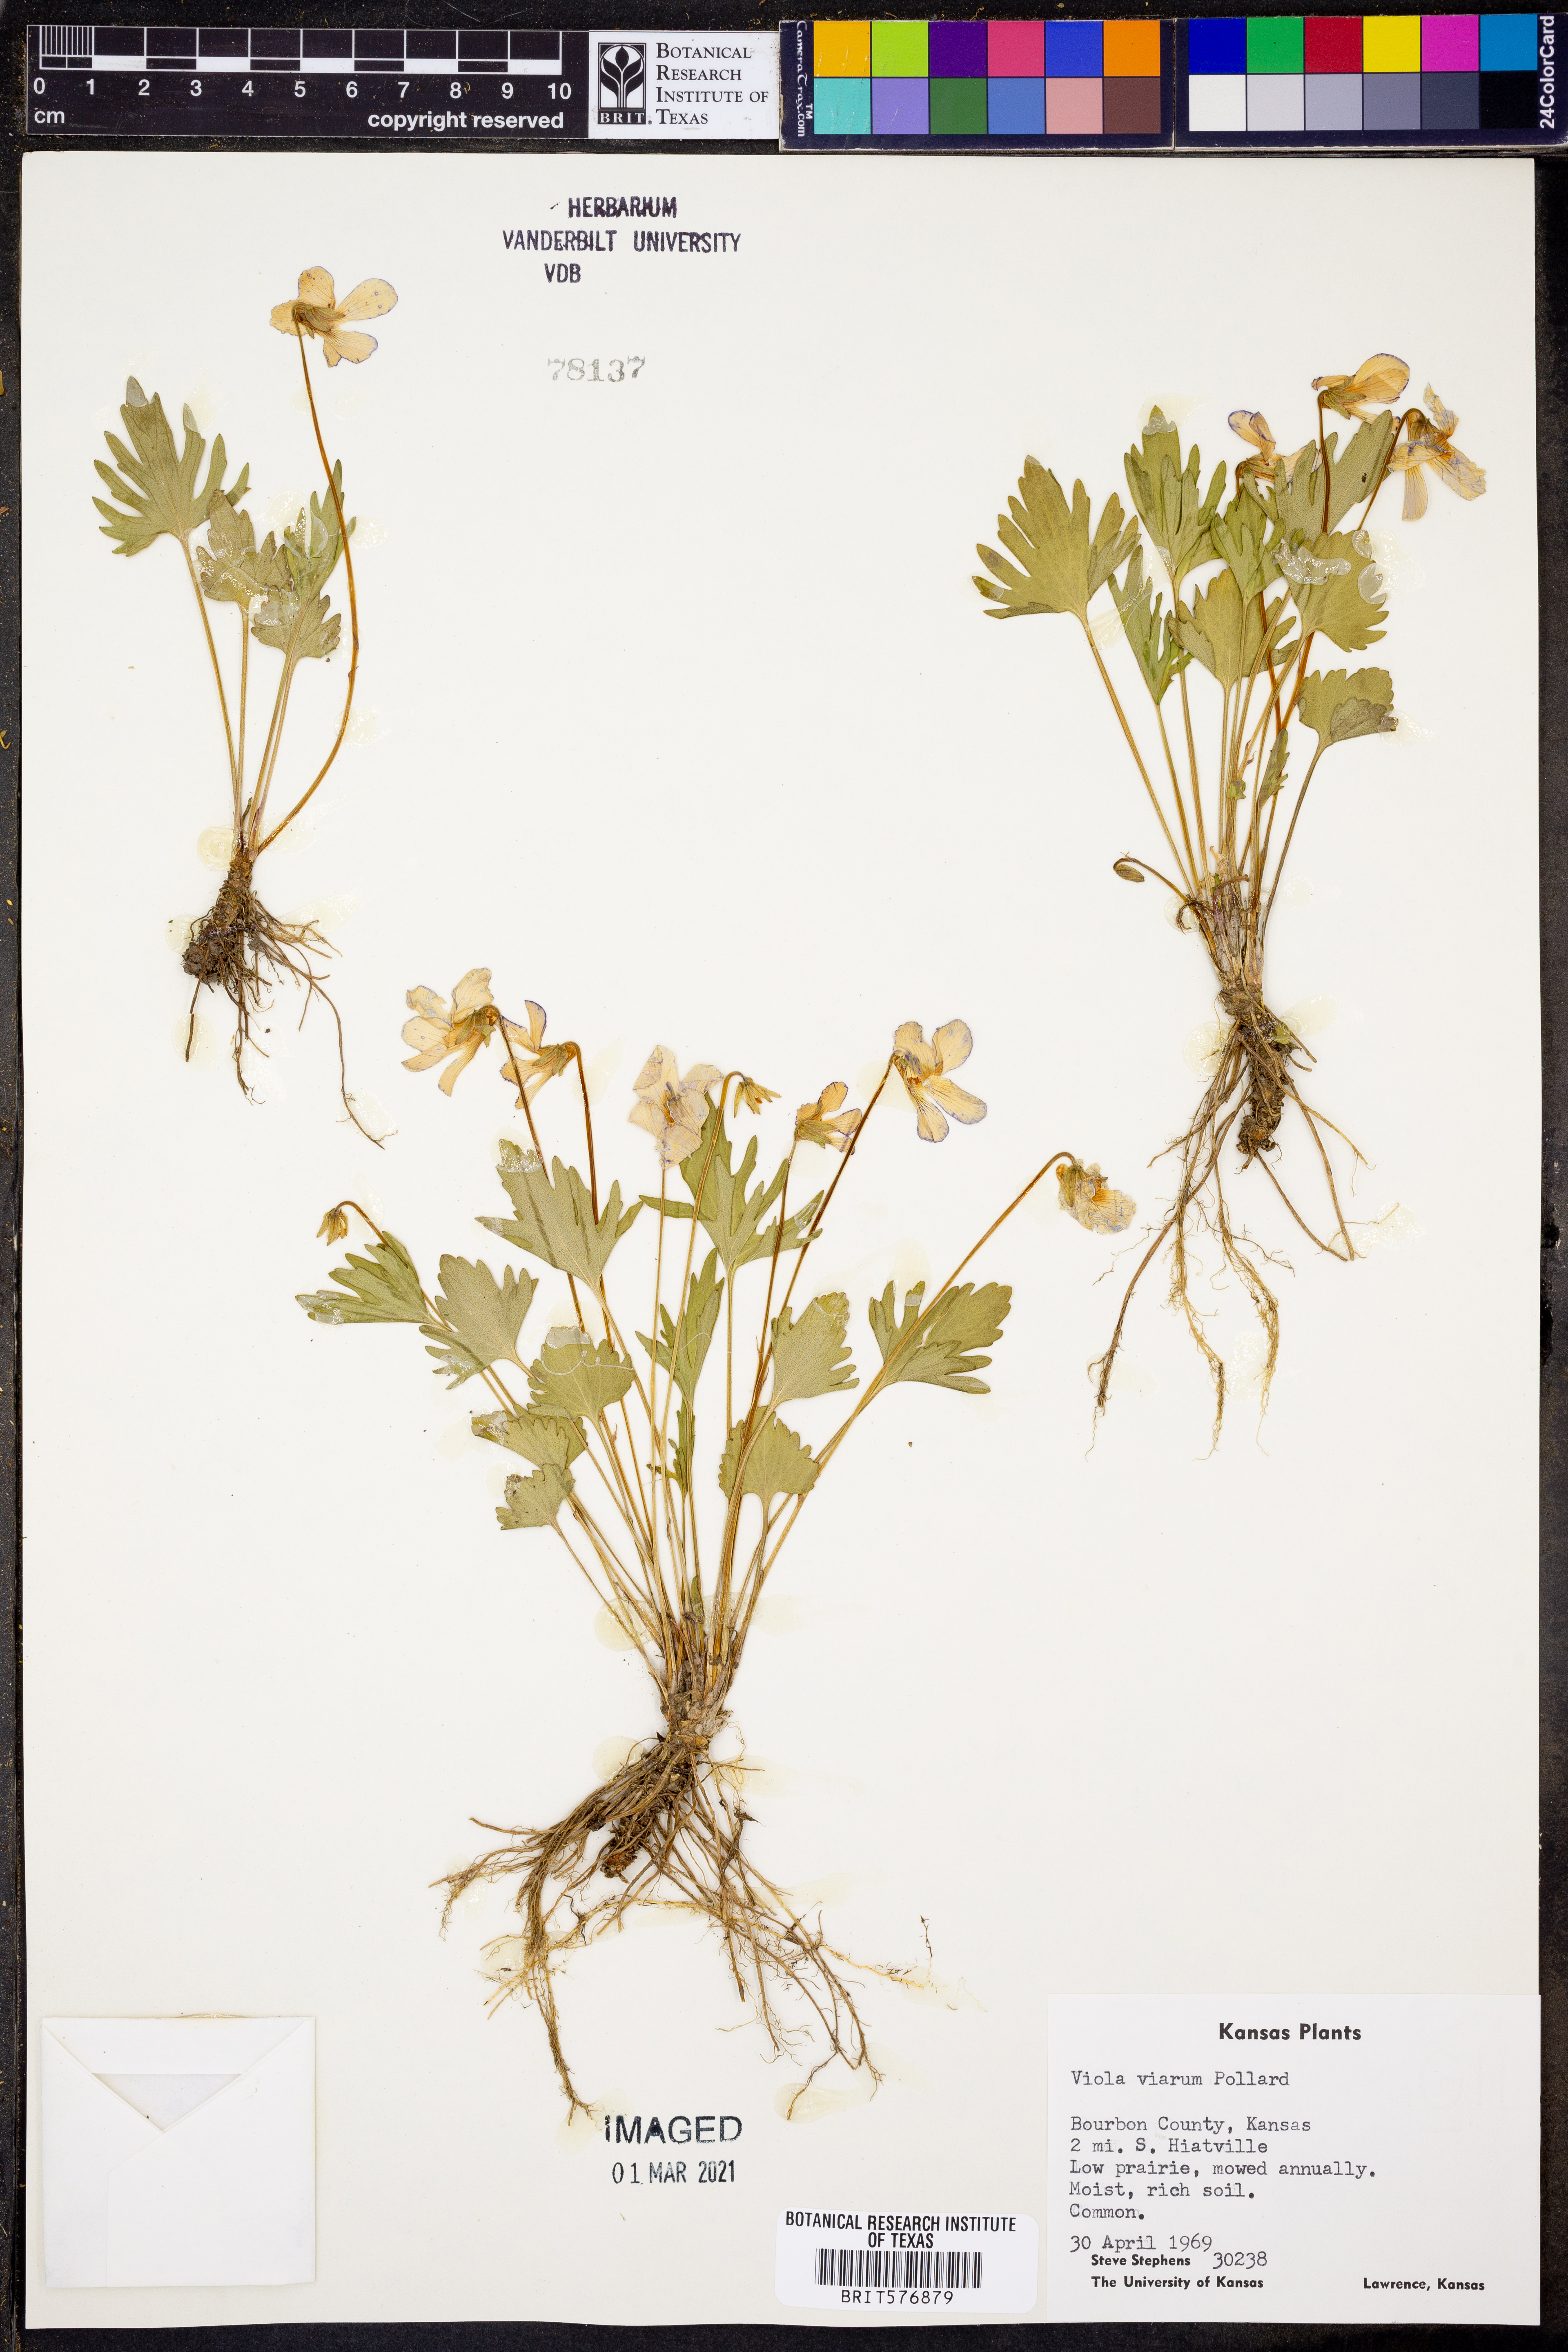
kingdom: Plantae
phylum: Tracheophyta
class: Magnoliopsida
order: Malpighiales
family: Violaceae
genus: Viola
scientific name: Viola viarum
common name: Twoflower violet
